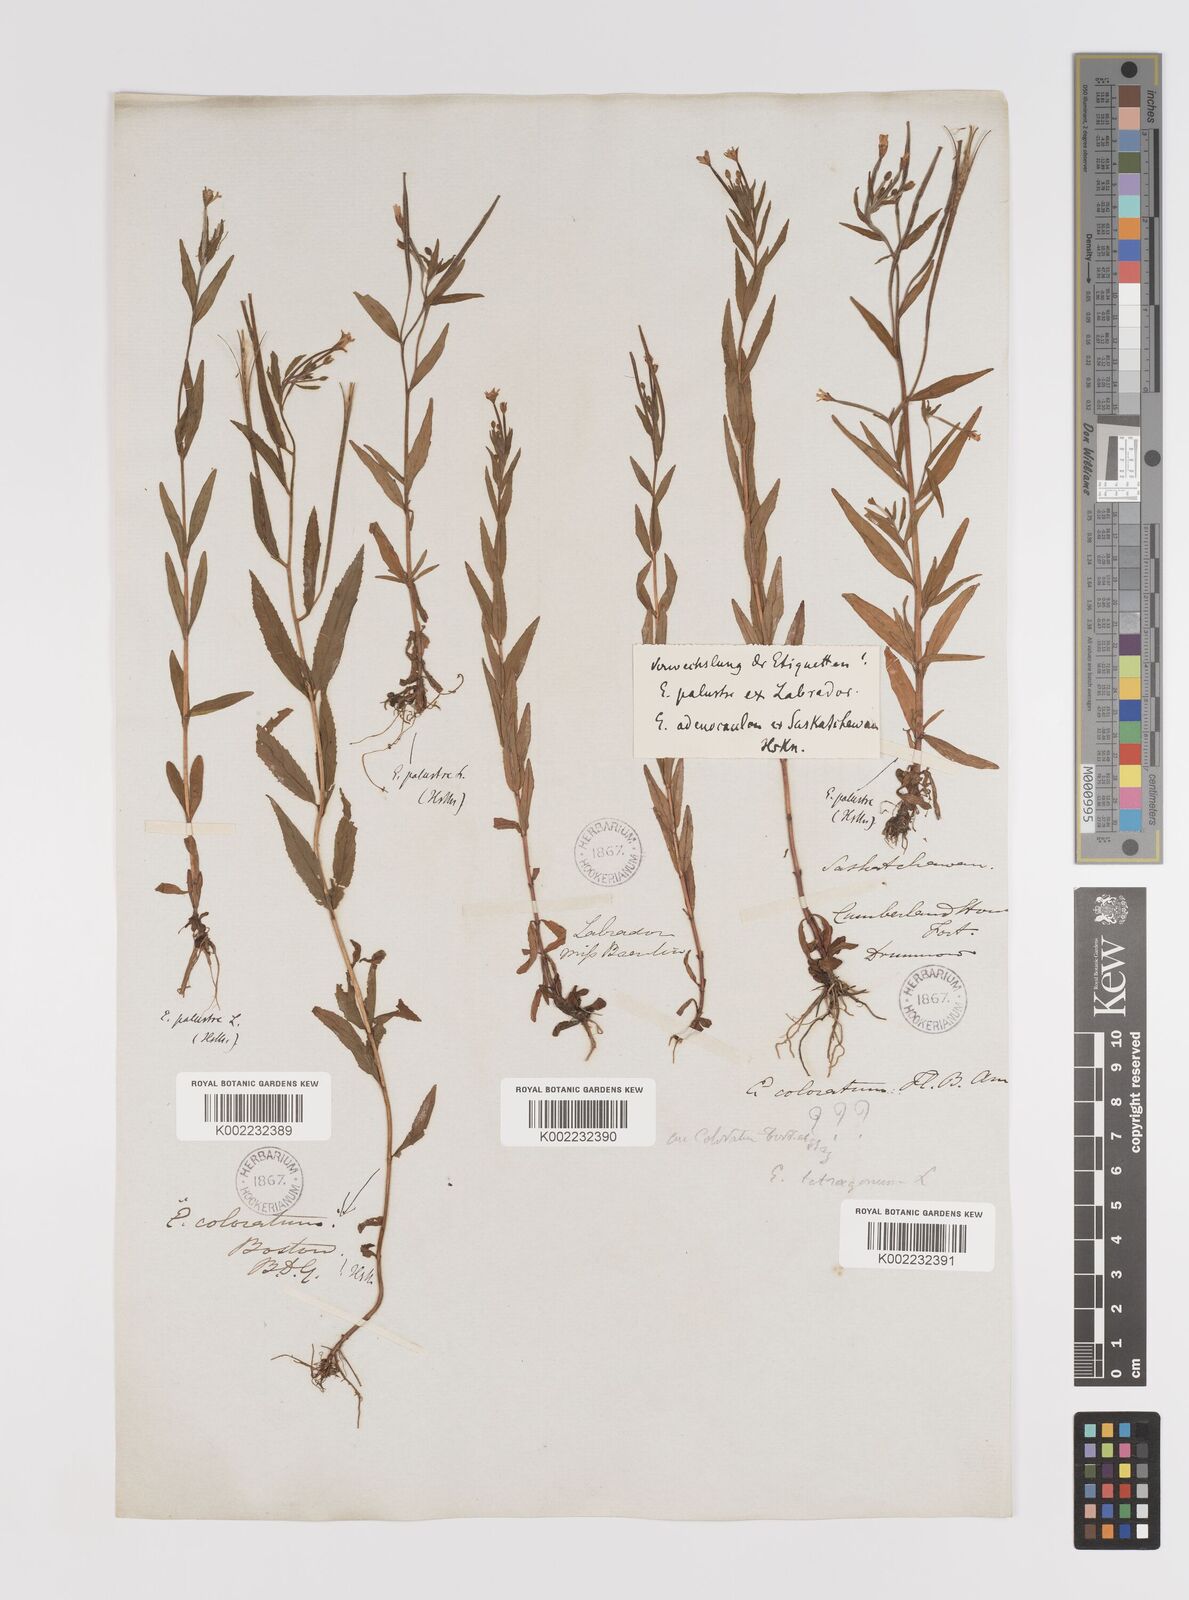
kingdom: Plantae
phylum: Tracheophyta
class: Magnoliopsida
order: Myrtales
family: Onagraceae
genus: Epilobium
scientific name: Epilobium palustre
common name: Marsh willowherb
